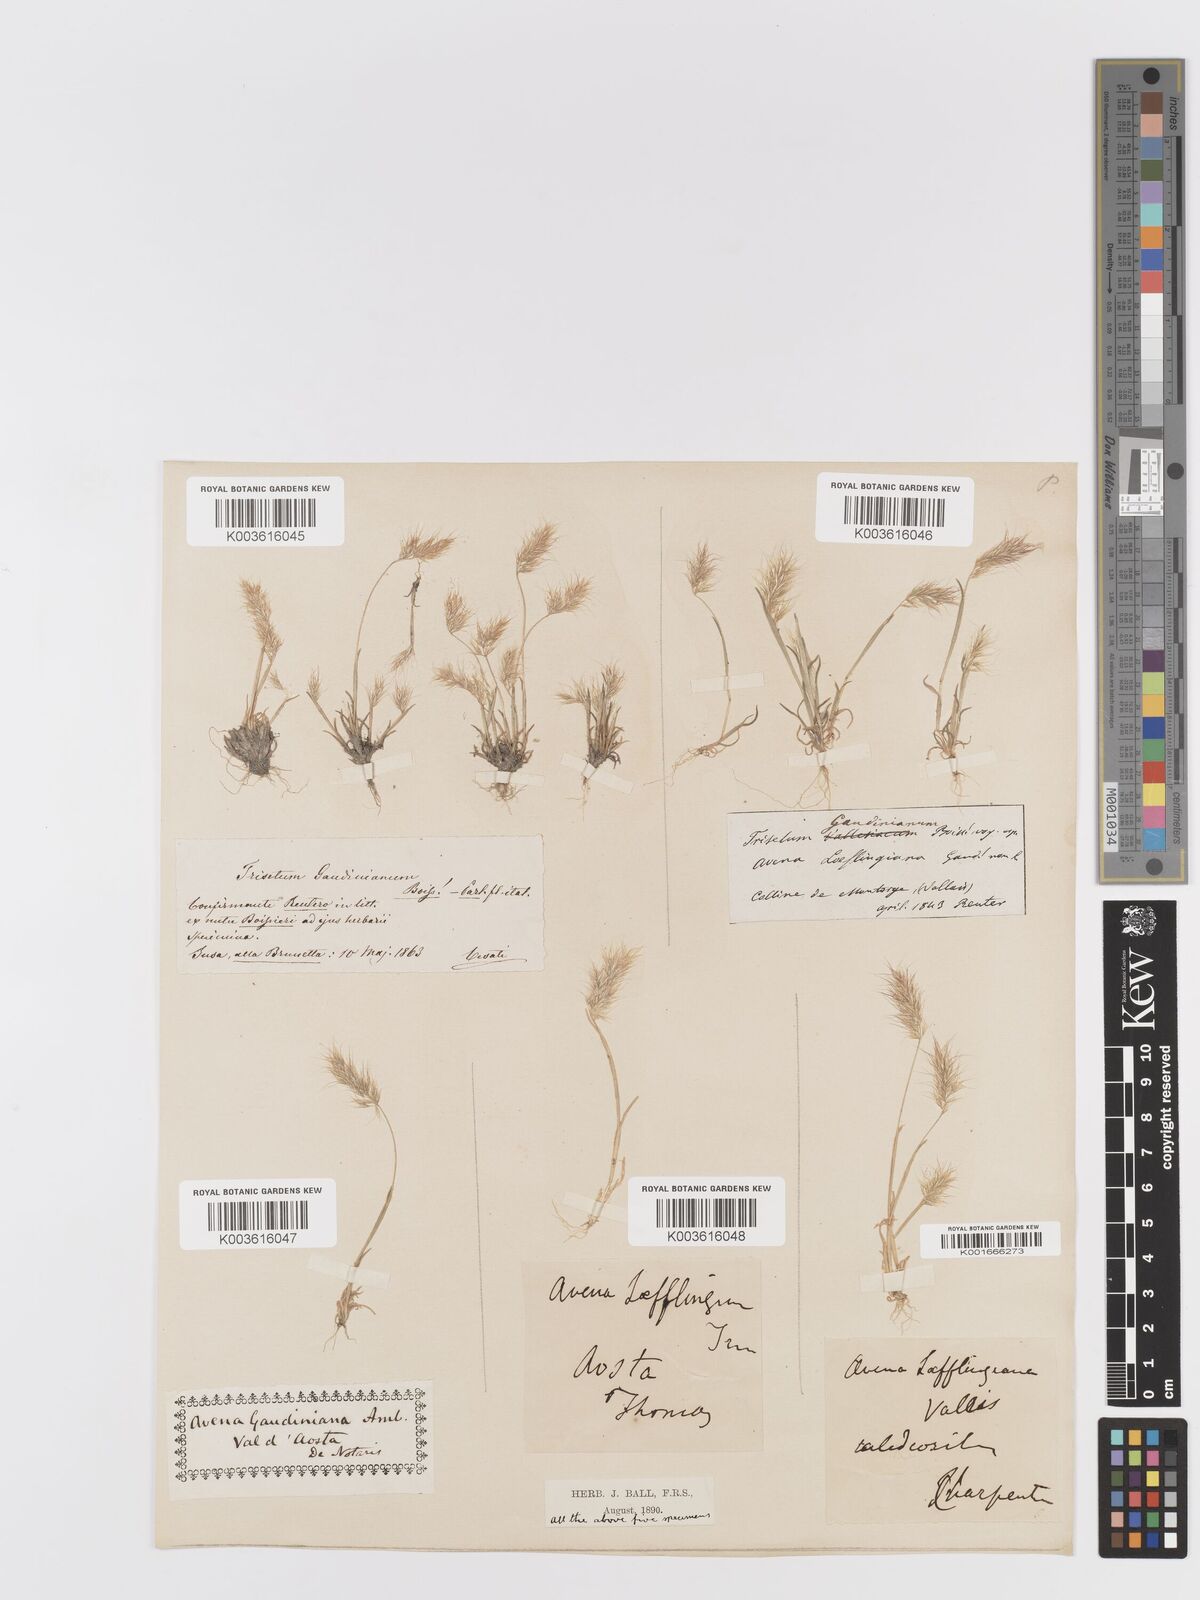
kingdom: Plantae
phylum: Tracheophyta
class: Liliopsida
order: Poales
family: Poaceae
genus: Trisetaria
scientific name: Trisetaria loeflingiana
